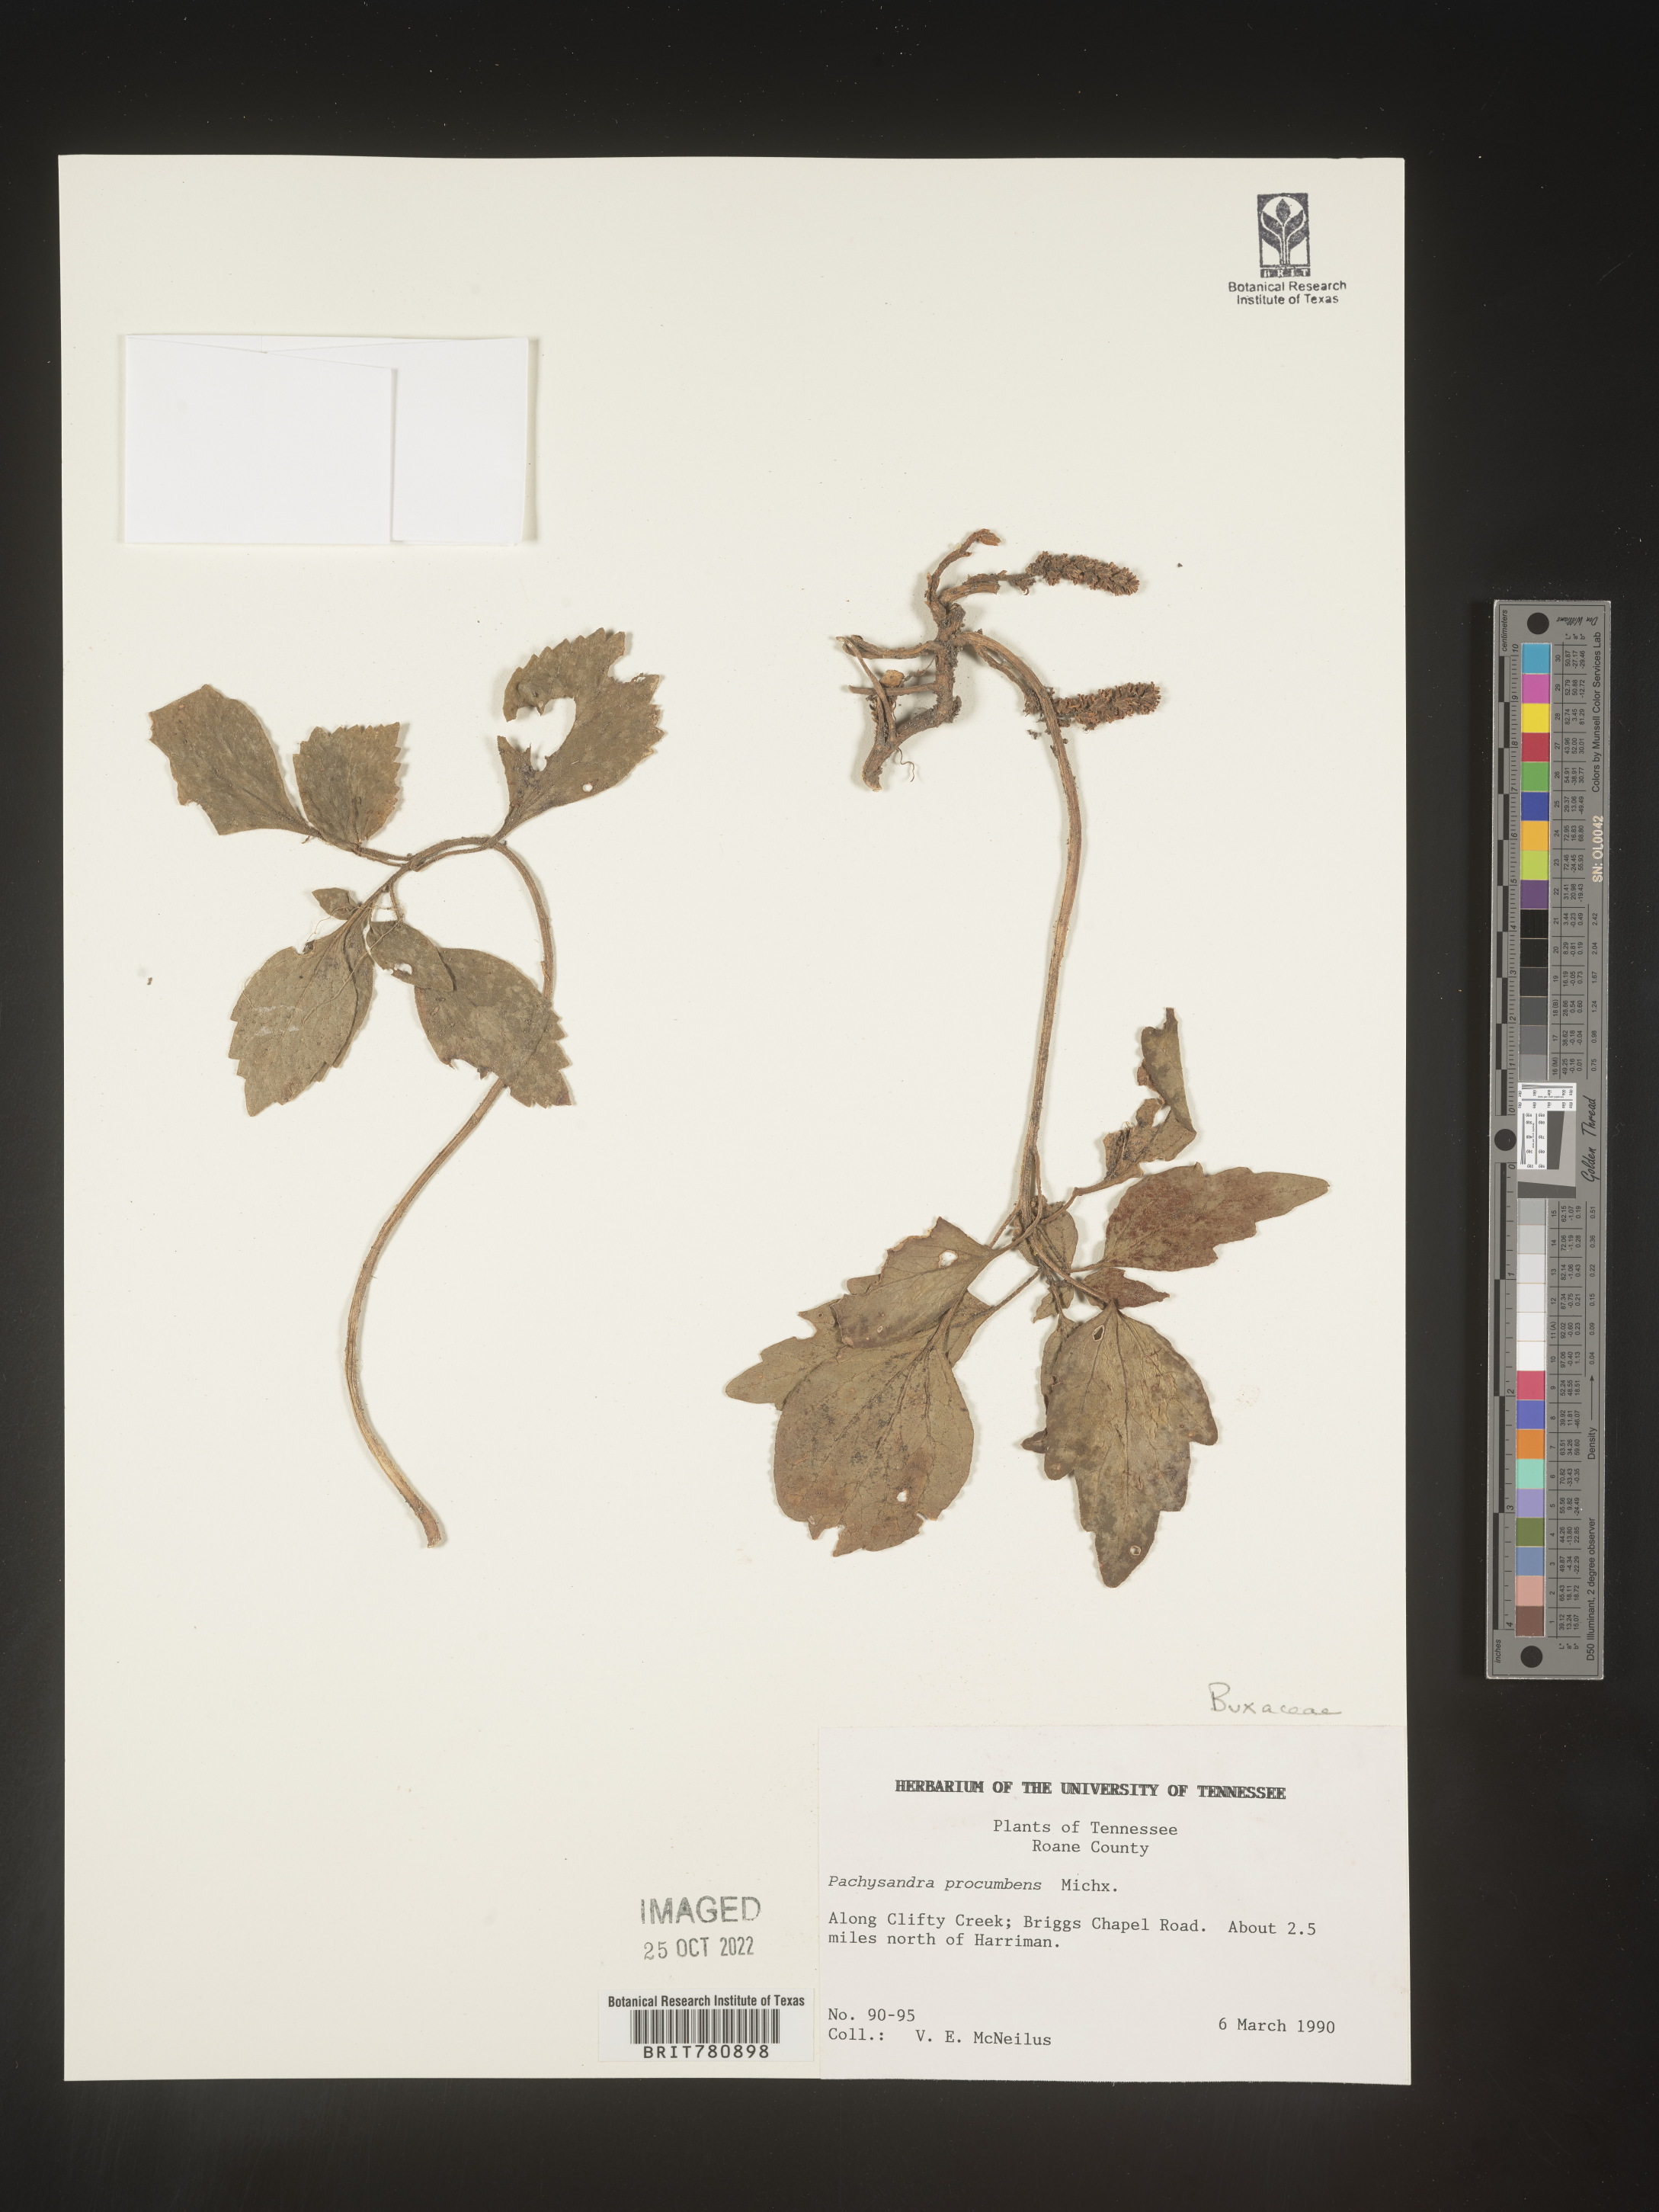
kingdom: Plantae
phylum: Tracheophyta
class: Magnoliopsida
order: Buxales
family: Buxaceae
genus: Pachysandra
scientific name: Pachysandra
